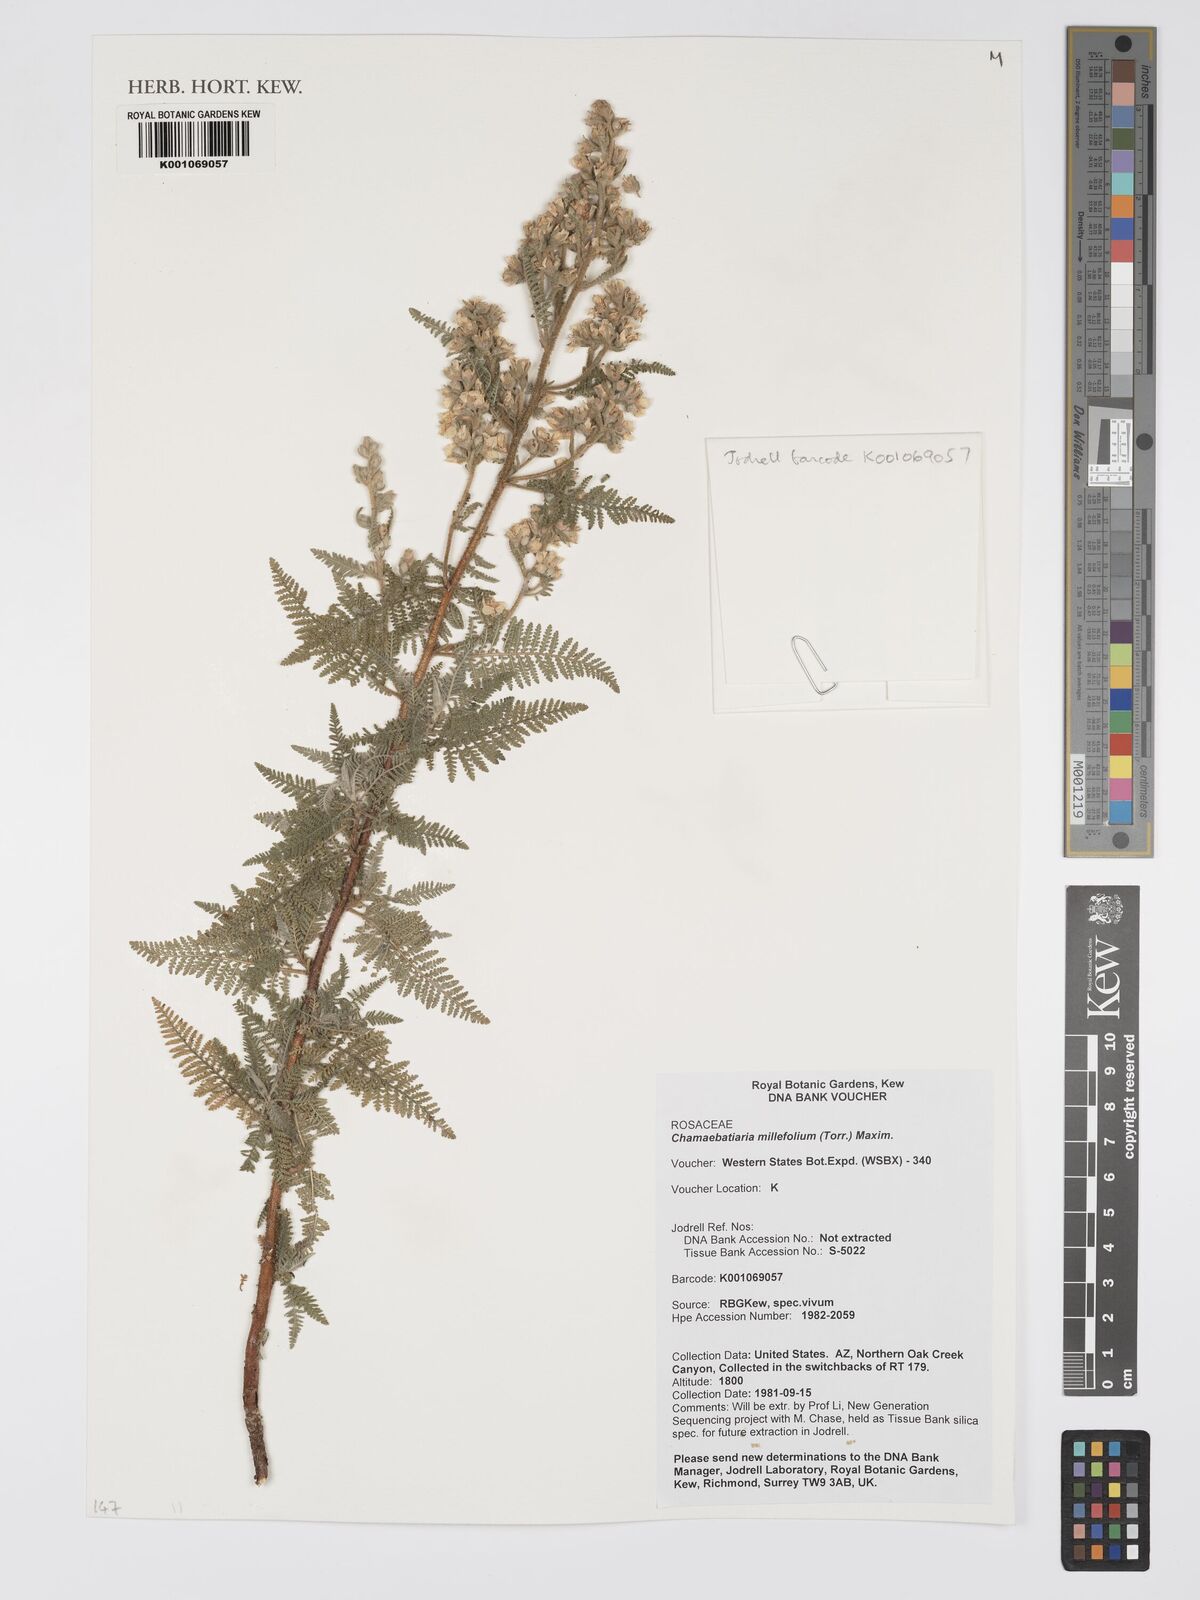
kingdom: Plantae
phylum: Tracheophyta
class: Magnoliopsida
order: Rosales
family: Rosaceae
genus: Chamaebatiaria
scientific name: Chamaebatiaria millefolium
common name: Fernbush
